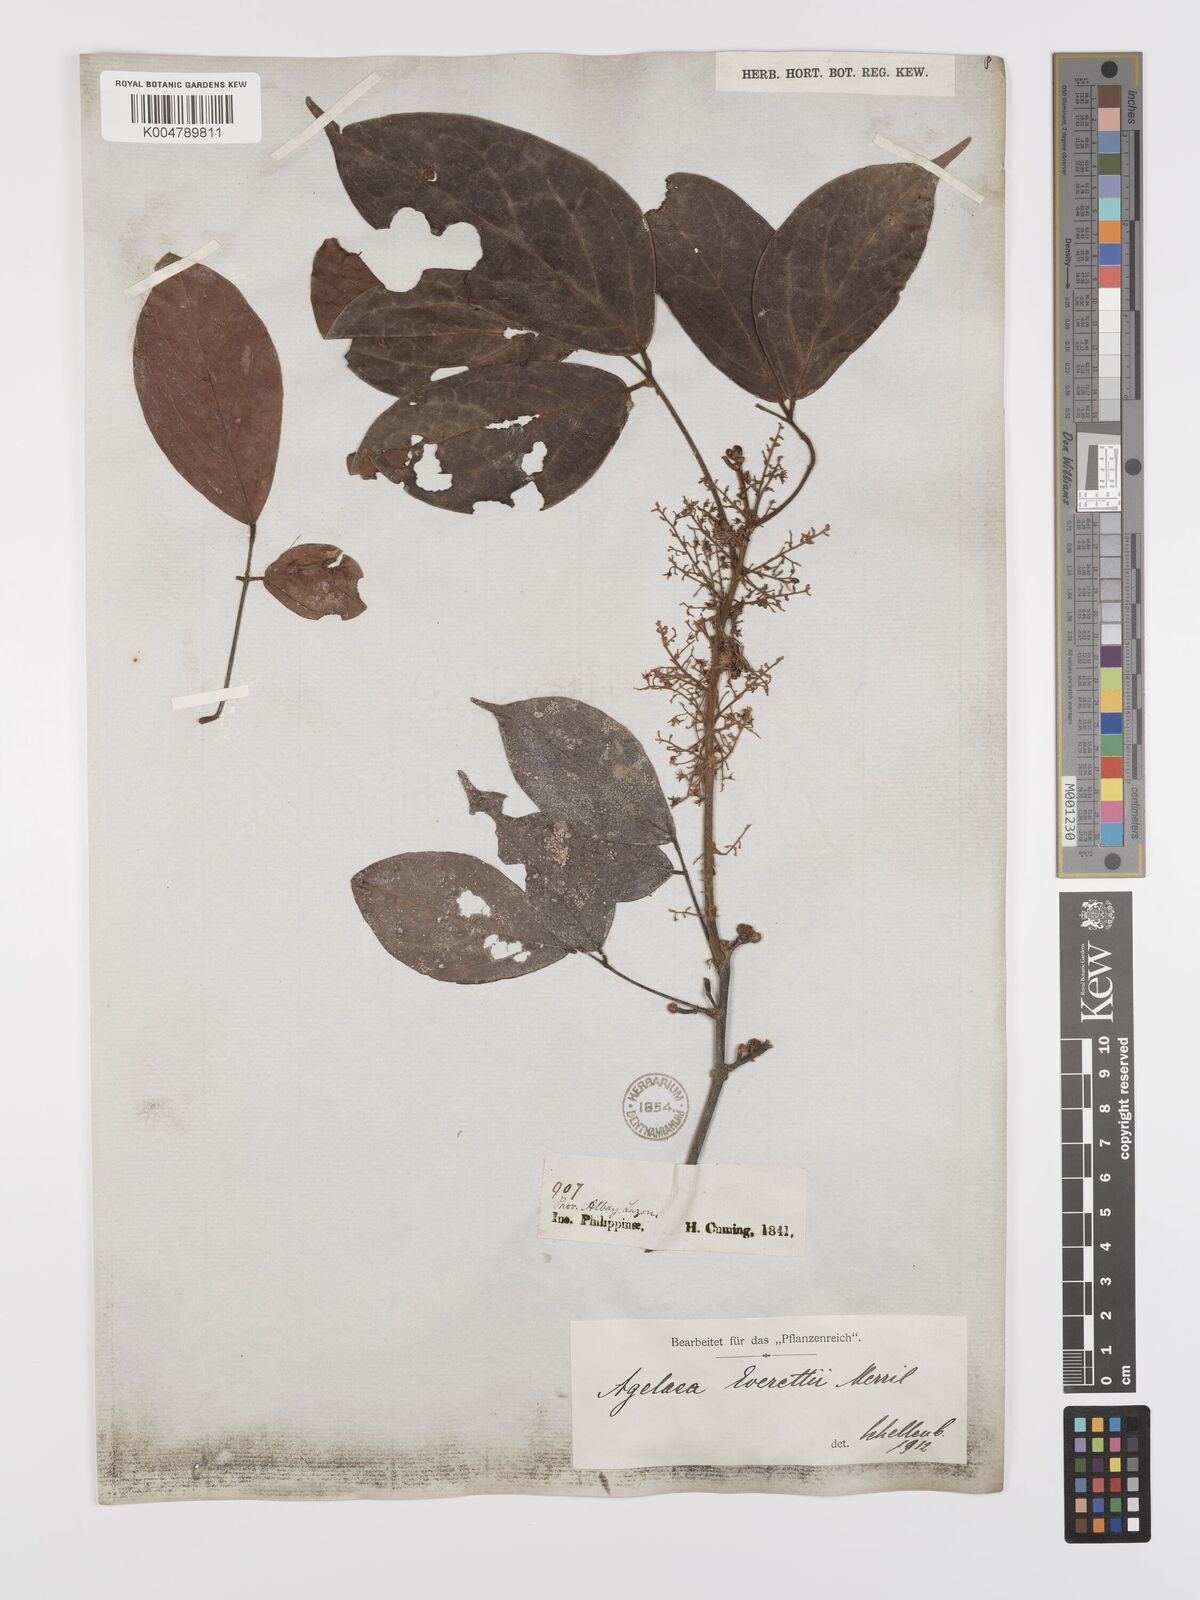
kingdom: Plantae
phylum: Tracheophyta
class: Magnoliopsida
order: Oxalidales
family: Connaraceae
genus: Agelaea
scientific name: Agelaea borneensis
